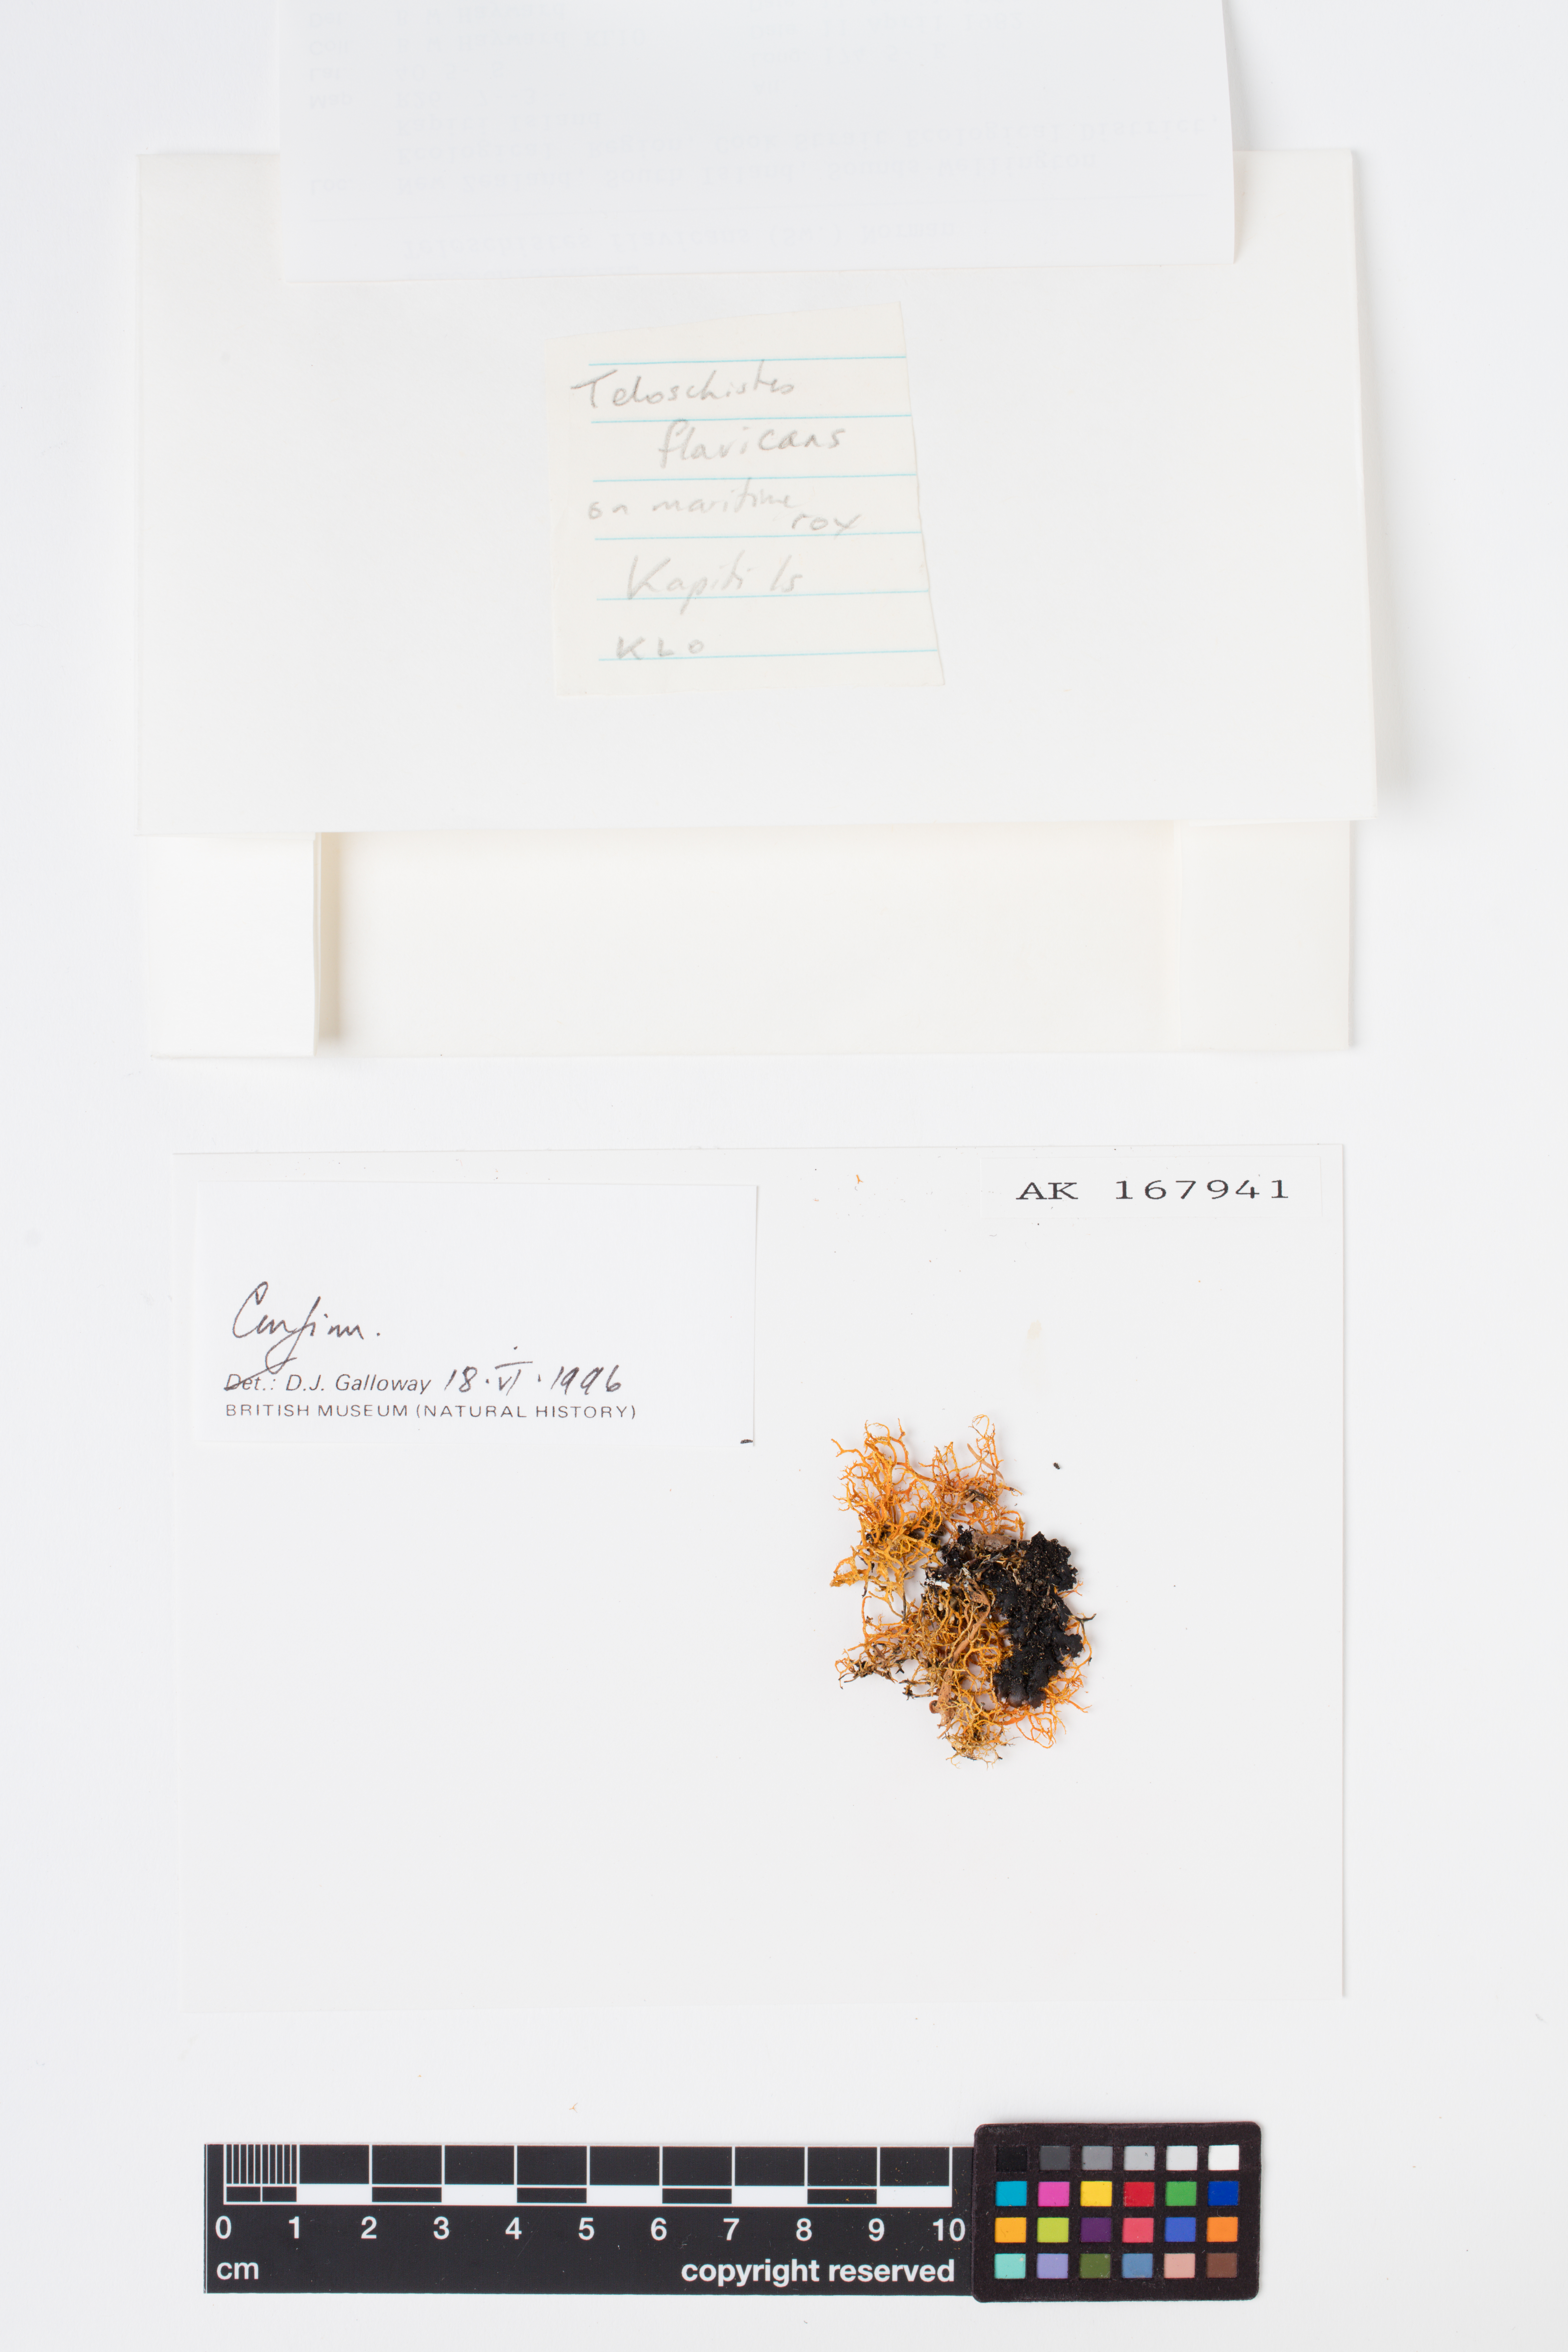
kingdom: Fungi
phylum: Ascomycota
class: Lecanoromycetes
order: Teloschistales
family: Teloschistaceae
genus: Teloschistes
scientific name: Teloschistes flavicans
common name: Golden hair-lichen
